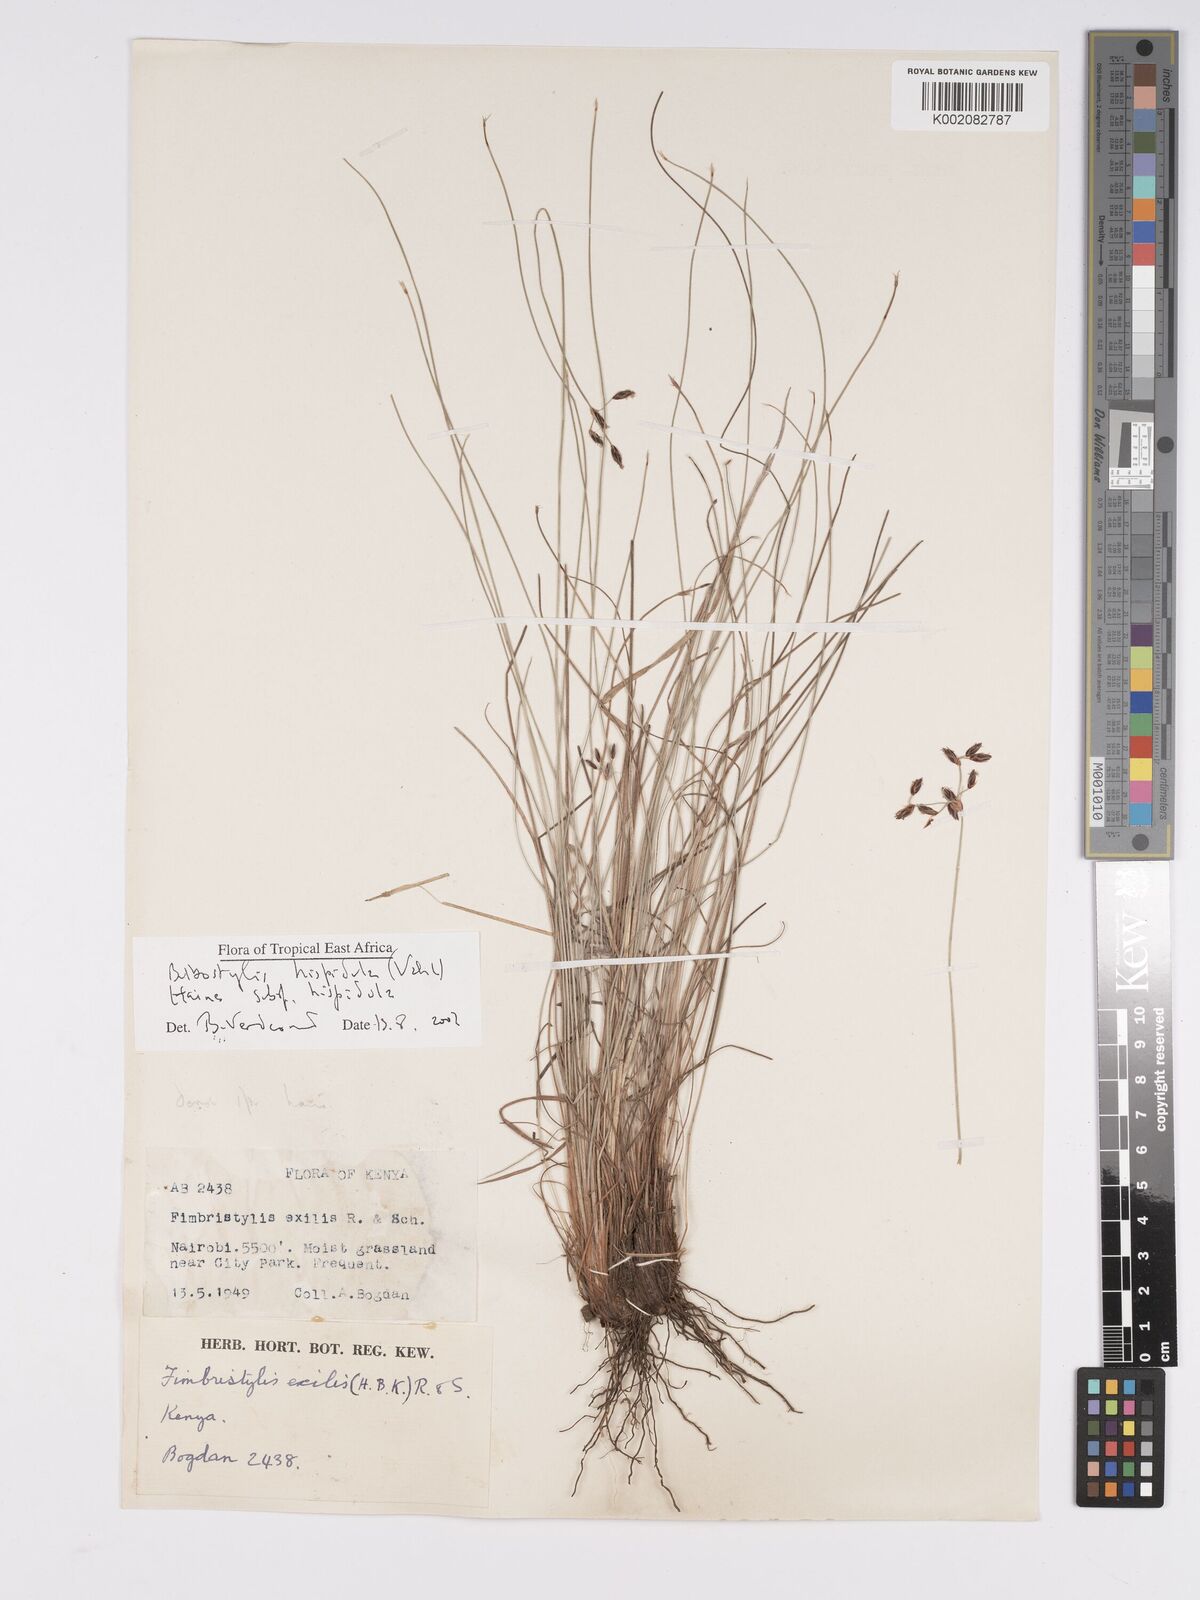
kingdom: Plantae
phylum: Tracheophyta
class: Liliopsida
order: Poales
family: Cyperaceae
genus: Bulbostylis
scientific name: Bulbostylis hispidula
